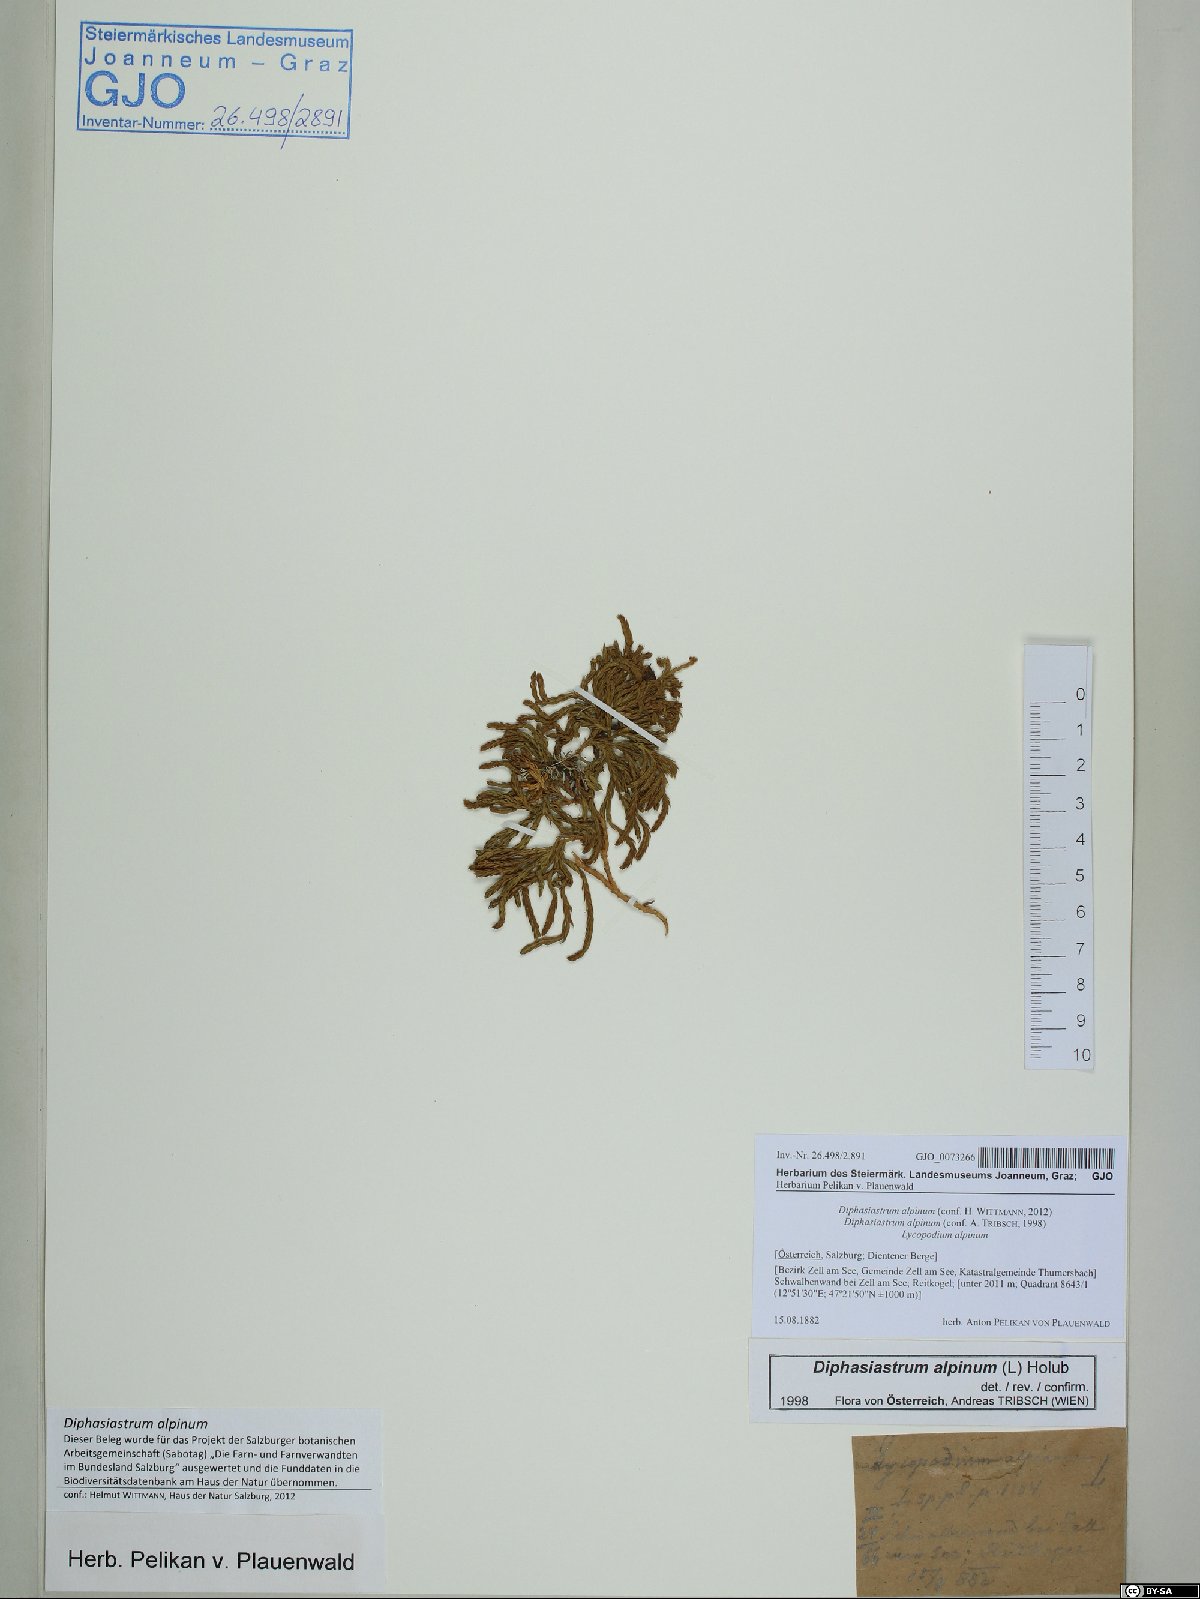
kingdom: Plantae
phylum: Tracheophyta
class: Lycopodiopsida
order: Lycopodiales
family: Lycopodiaceae
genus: Diphasiastrum
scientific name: Diphasiastrum alpinum
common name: Alpine clubmoss
